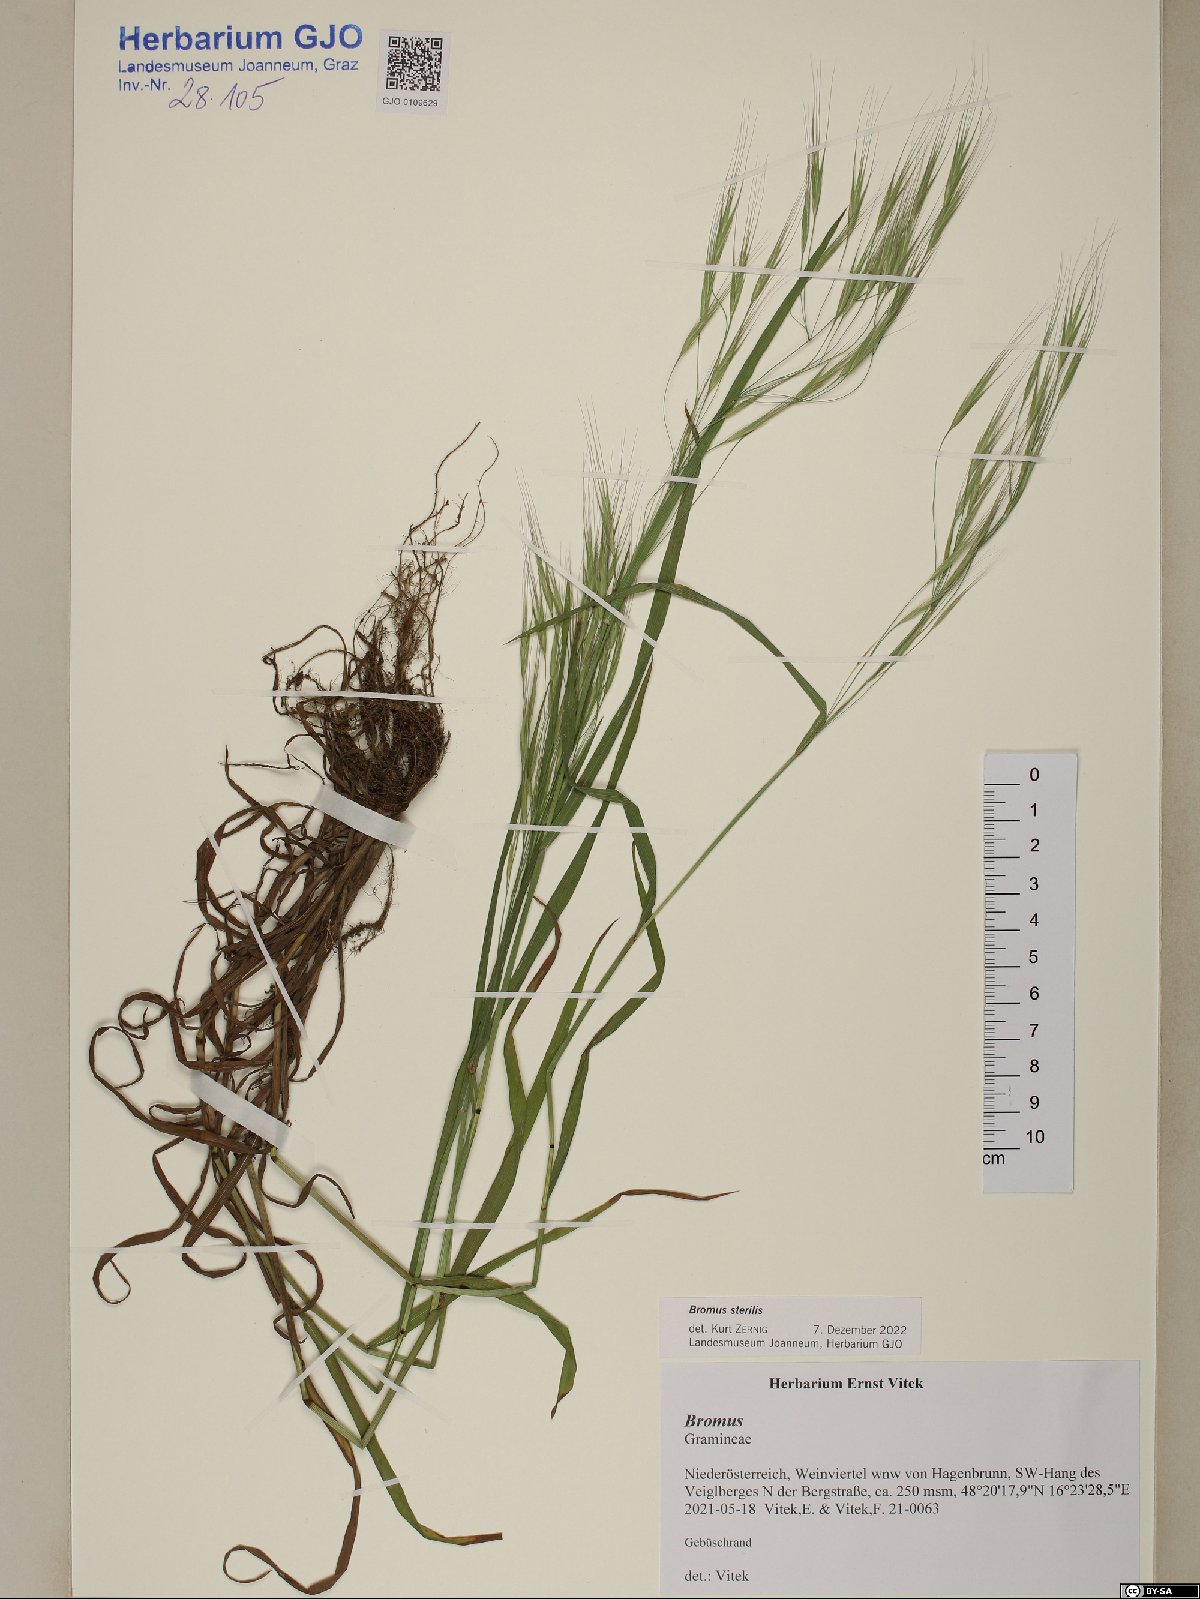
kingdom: Plantae
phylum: Tracheophyta
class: Liliopsida
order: Poales
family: Poaceae
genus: Bromus
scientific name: Bromus sterilis
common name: Poverty brome
